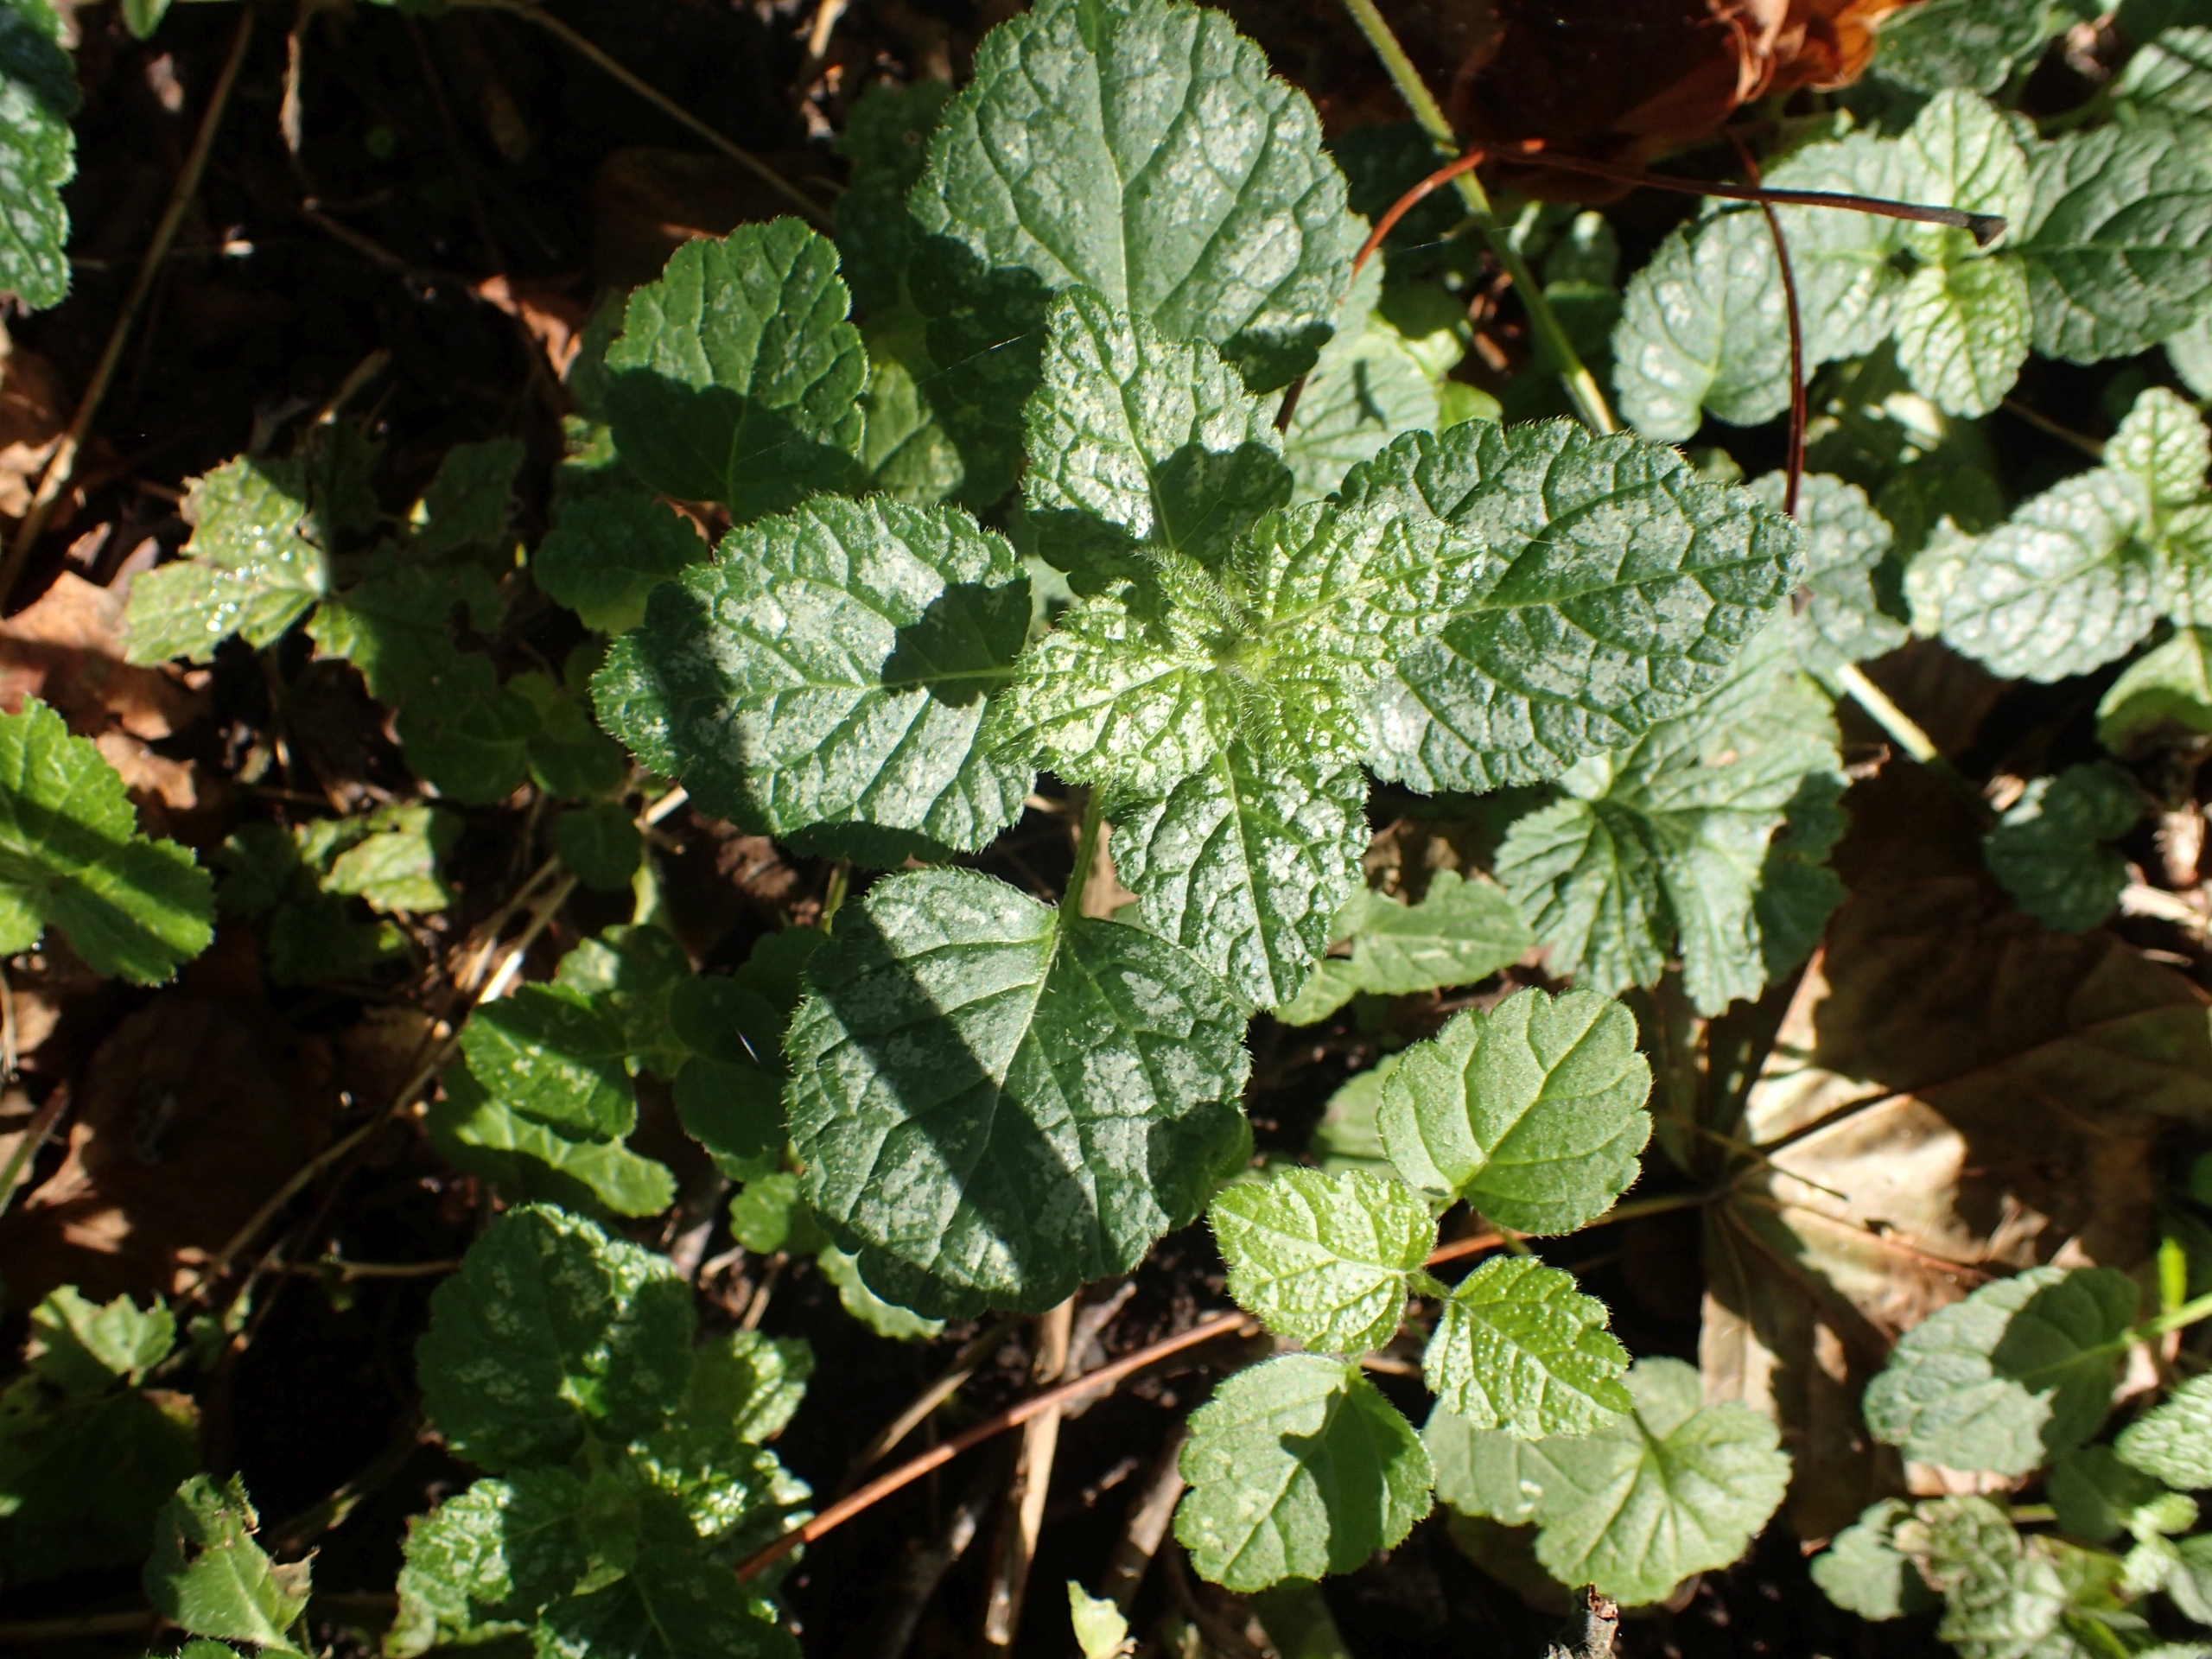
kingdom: Plantae
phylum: Tracheophyta
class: Magnoliopsida
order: Lamiales
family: Lamiaceae
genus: Lamium
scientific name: Lamium galeobdolon
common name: Almindelig guldnælde
